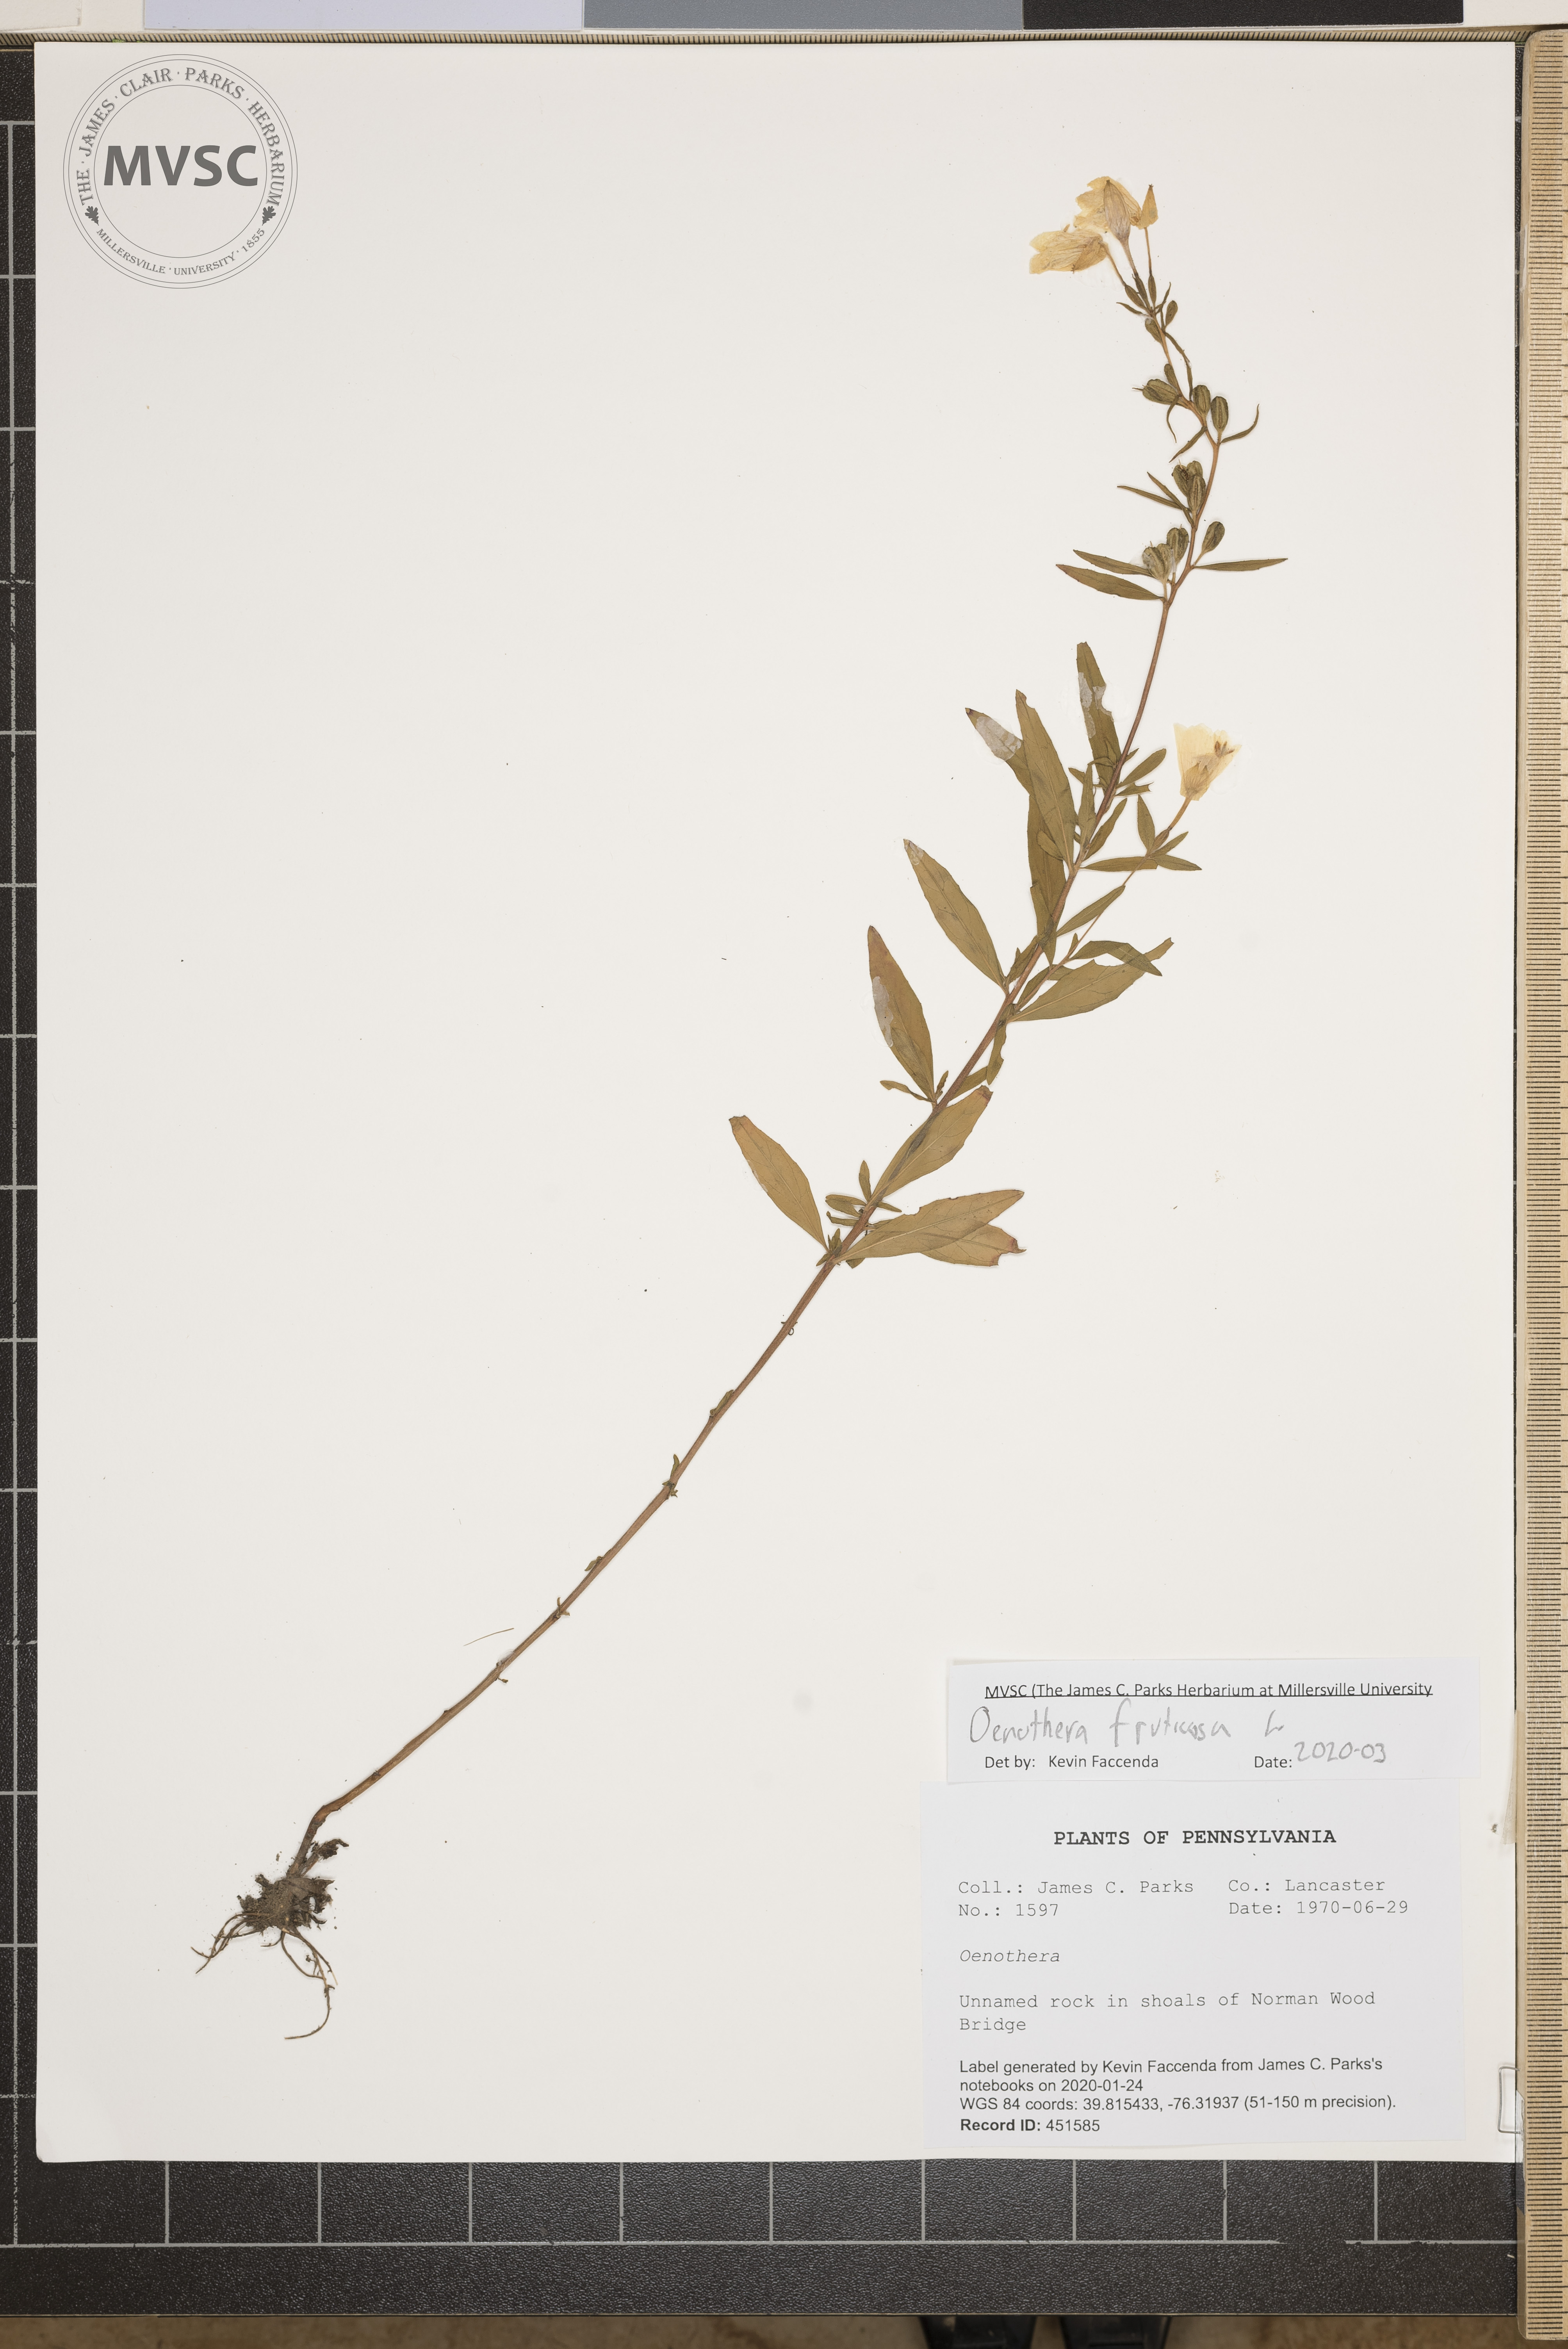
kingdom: Plantae
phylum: Tracheophyta
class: Magnoliopsida
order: Myrtales
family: Onagraceae
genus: Oenothera
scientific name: Oenothera fruticosa
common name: Southern sundrops
